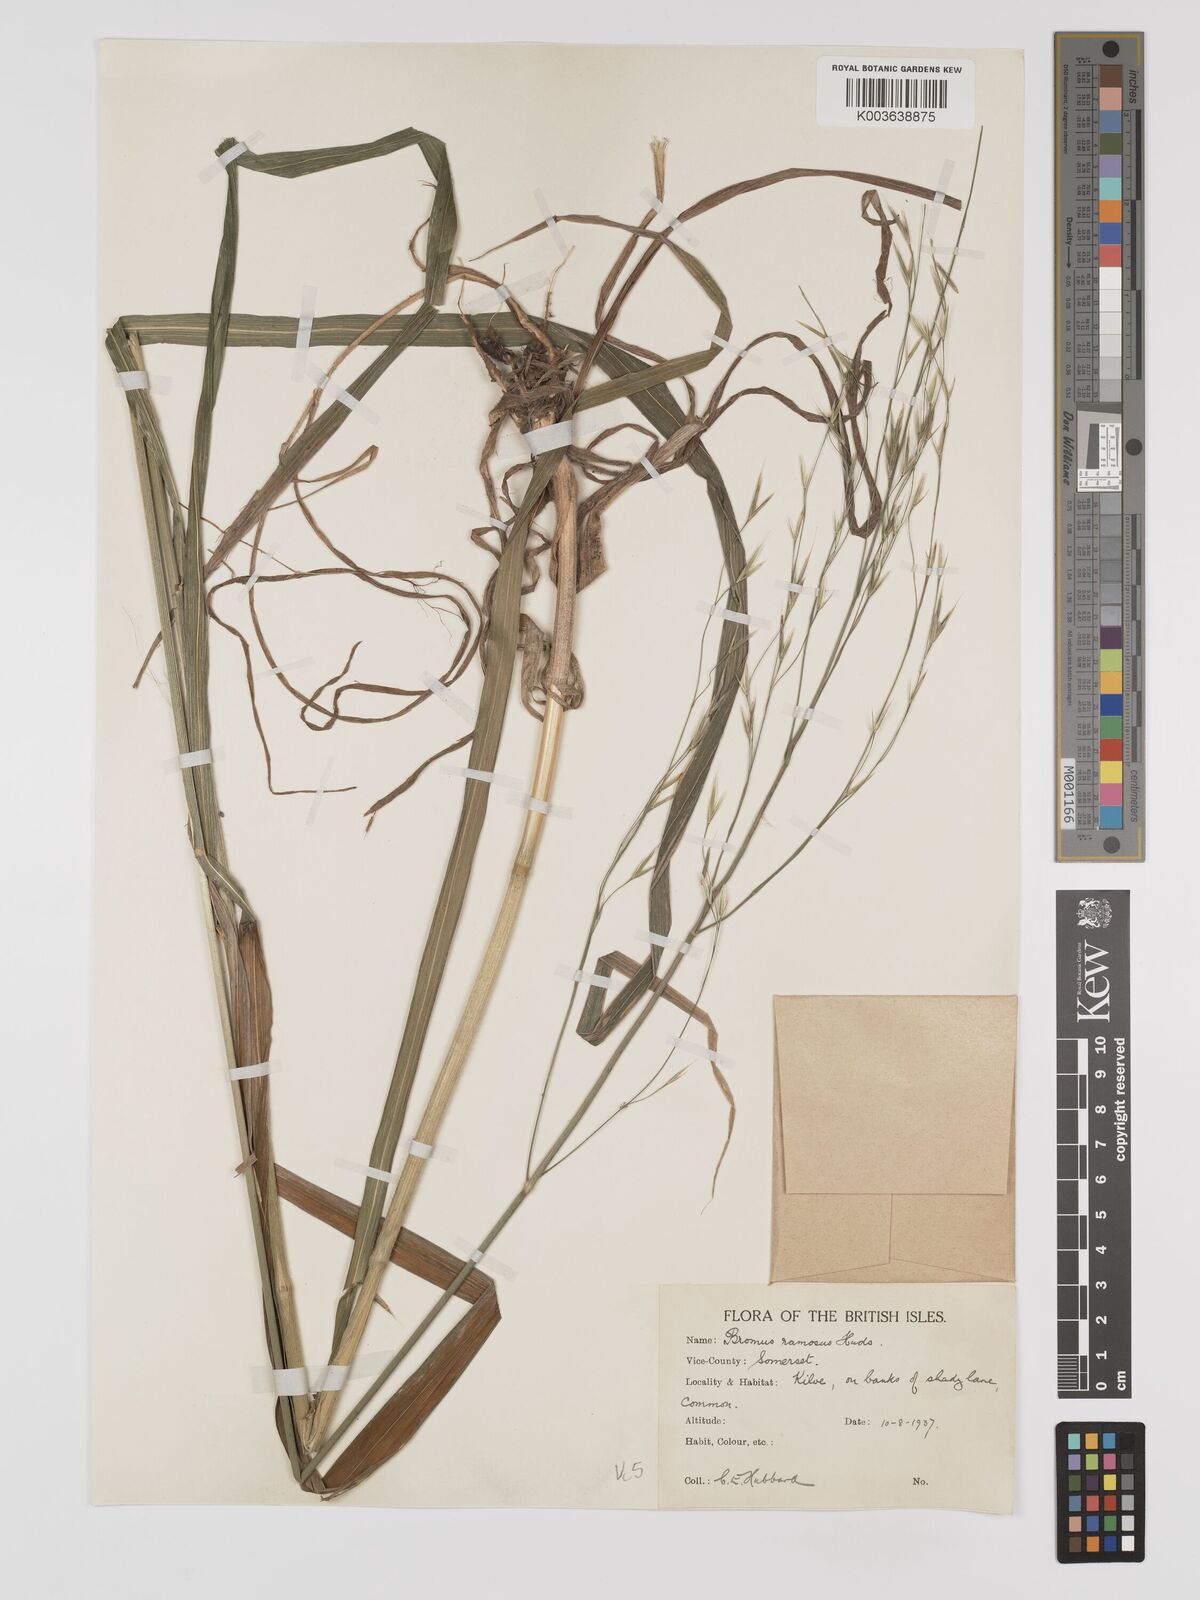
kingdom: Plantae
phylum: Tracheophyta
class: Liliopsida
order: Poales
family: Poaceae
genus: Brachypodium
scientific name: Brachypodium retusum
